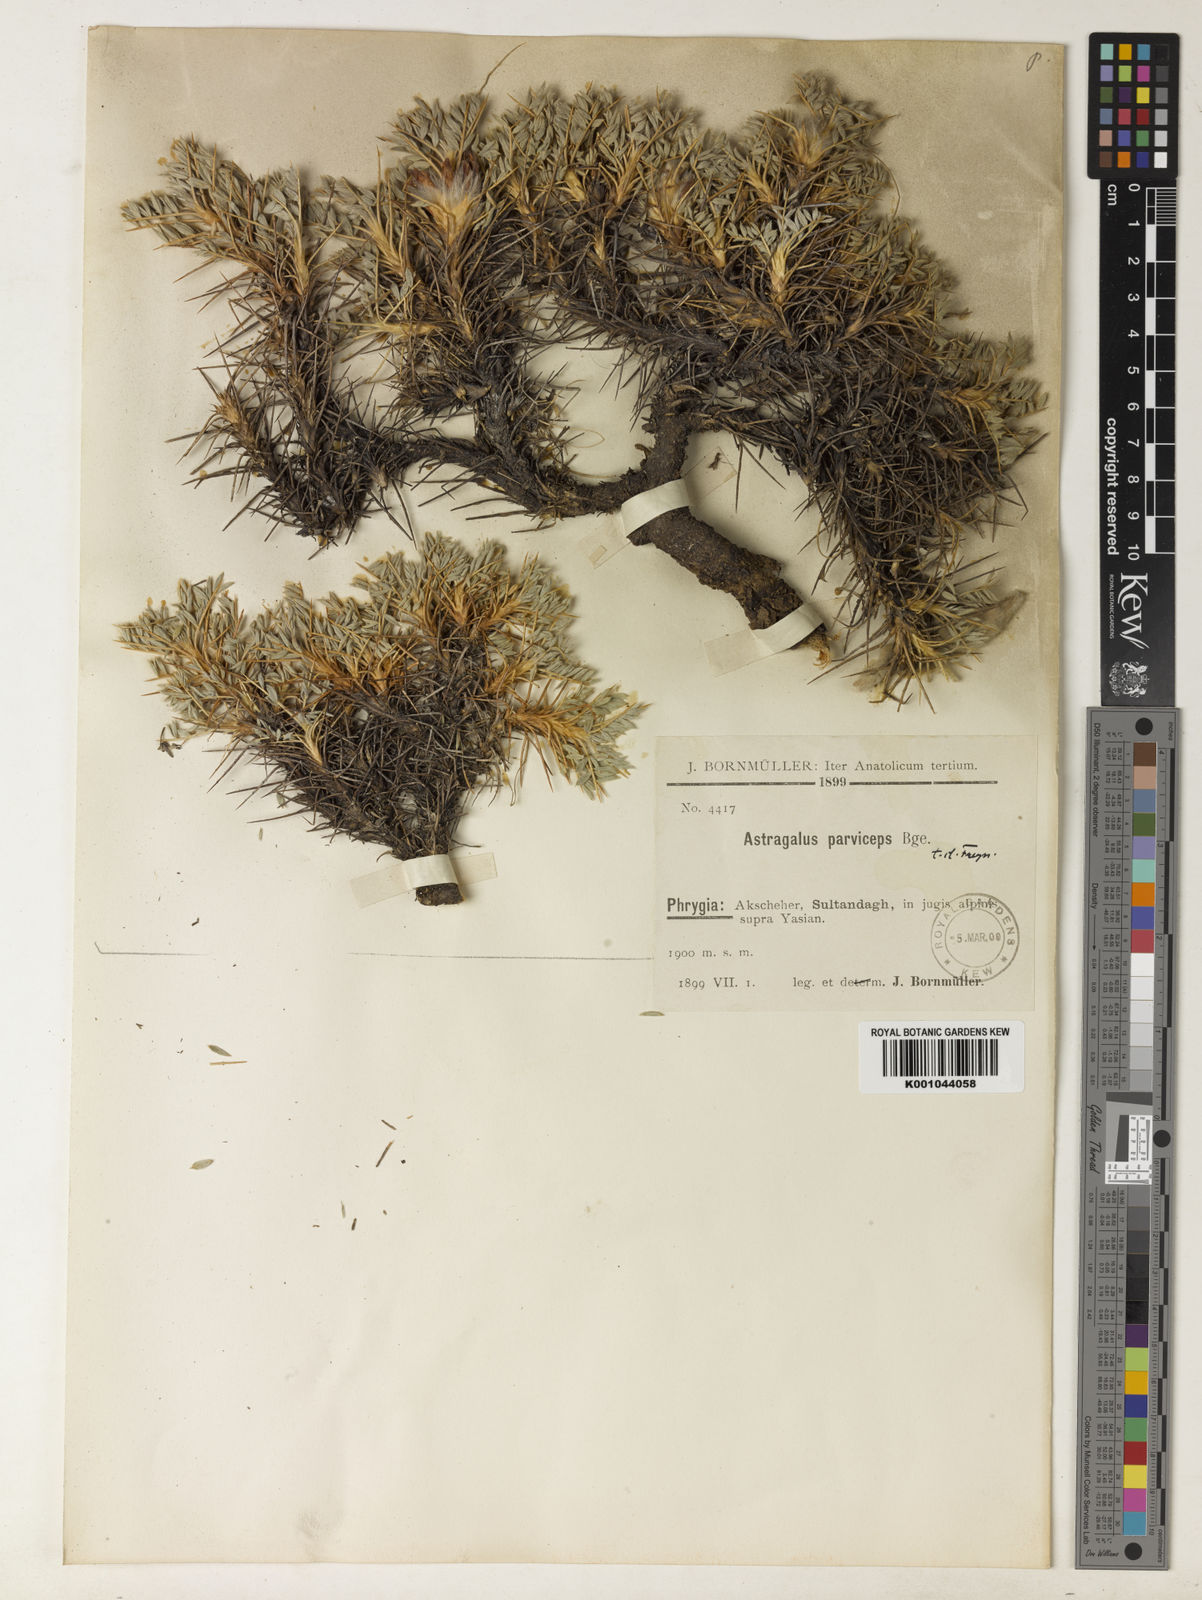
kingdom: Plantae
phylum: Tracheophyta
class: Magnoliopsida
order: Fabales
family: Fabaceae
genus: Astragalus
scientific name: Astragalus
